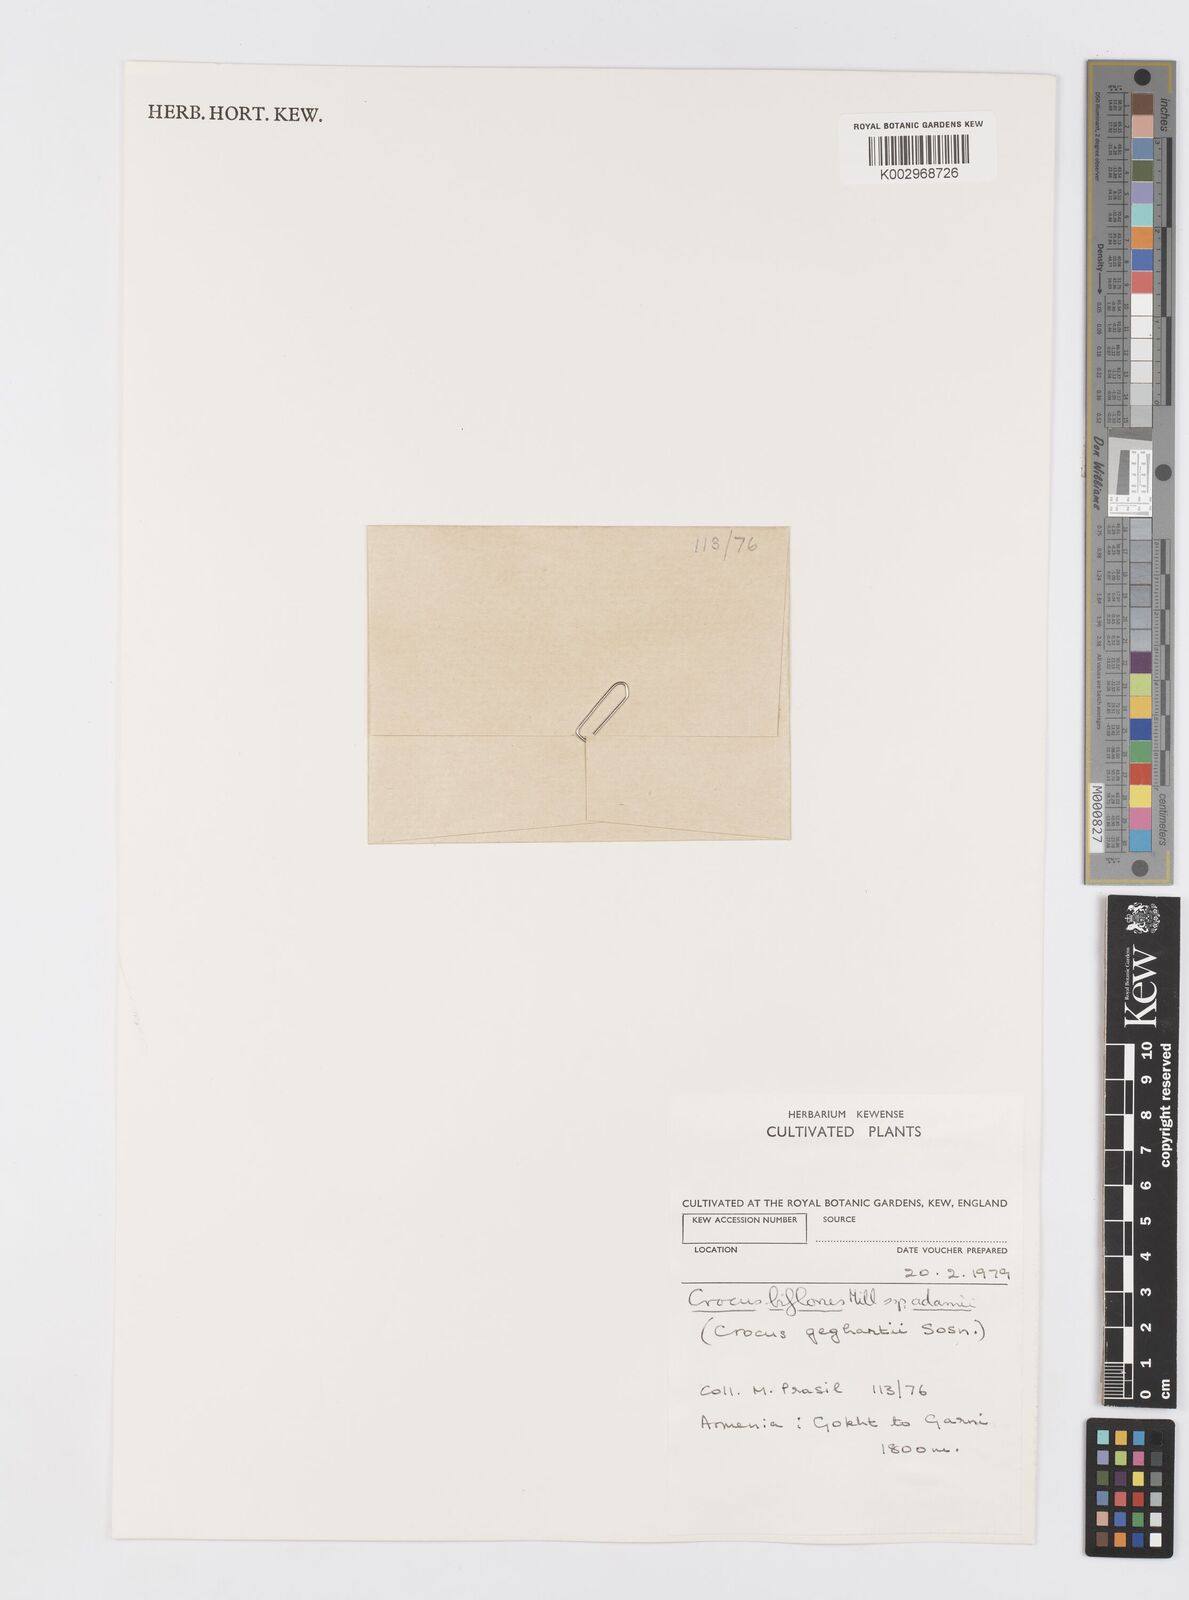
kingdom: Plantae
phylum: Tracheophyta
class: Liliopsida
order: Asparagales
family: Iridaceae
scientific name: Iridaceae
